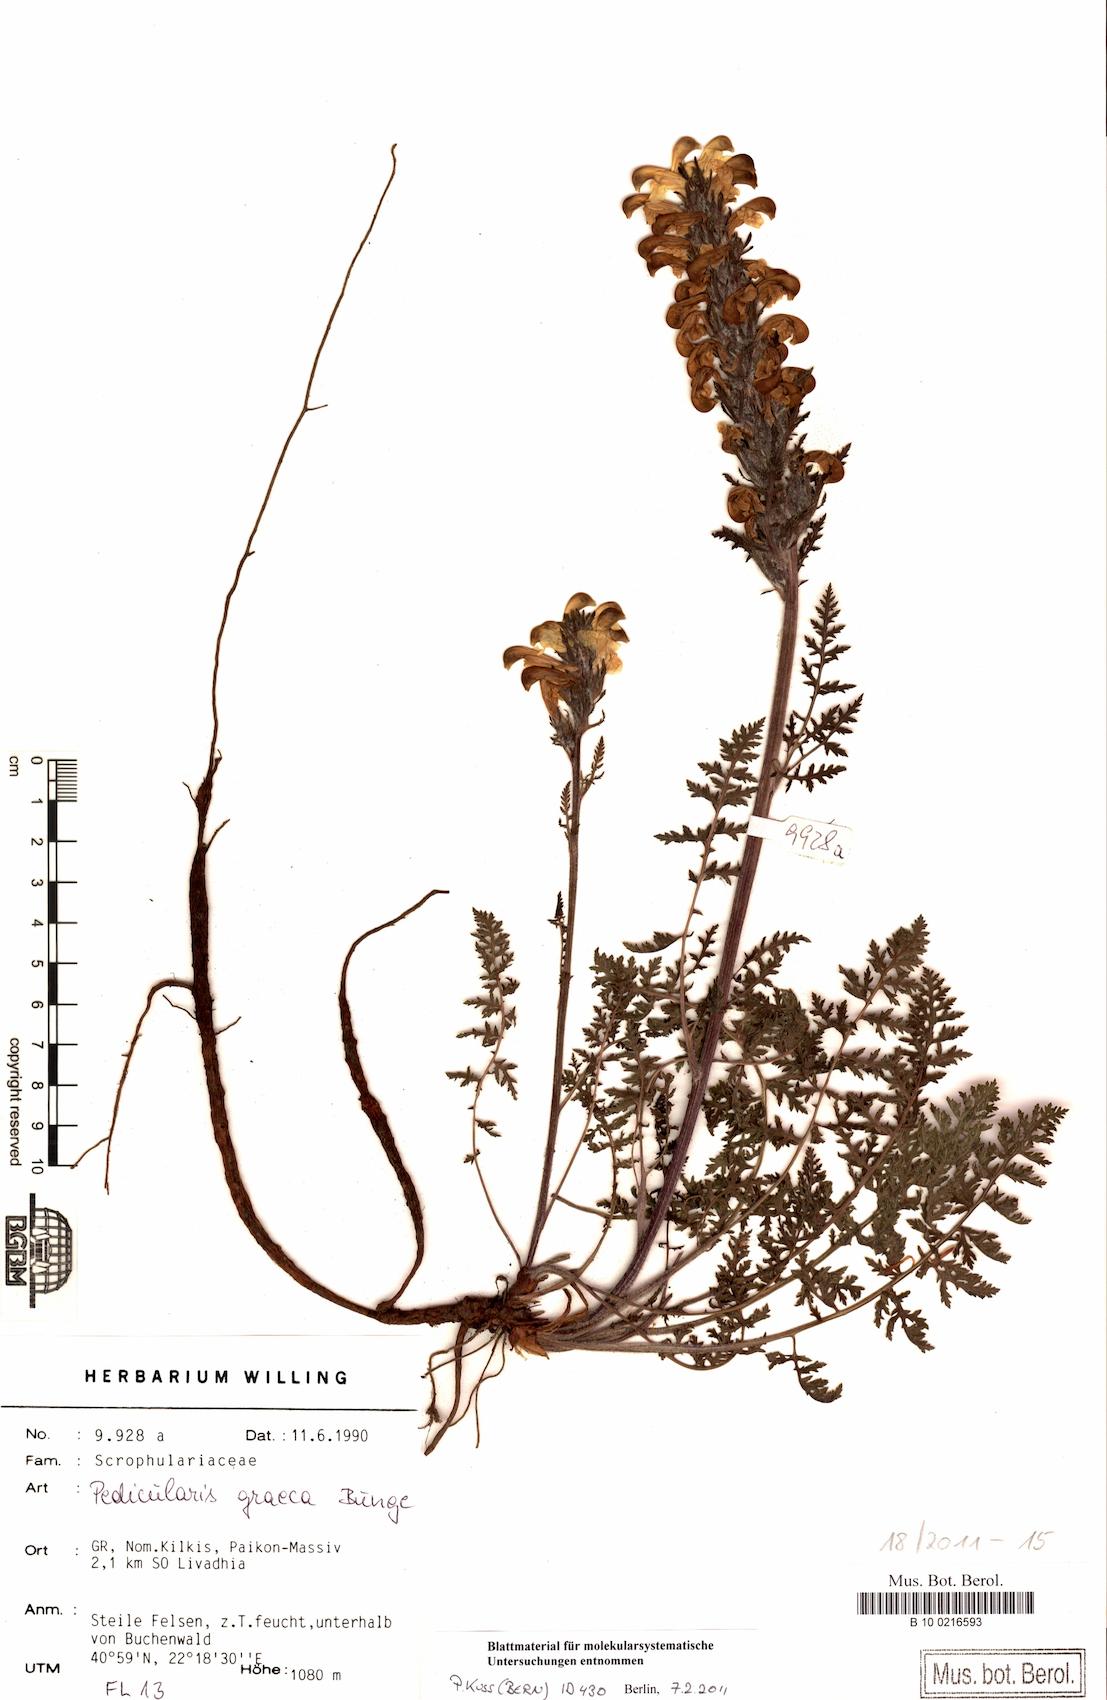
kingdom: Plantae
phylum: Tracheophyta
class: Magnoliopsida
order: Lamiales
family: Orobanchaceae
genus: Pedicularis
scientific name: Pedicularis leucodon
